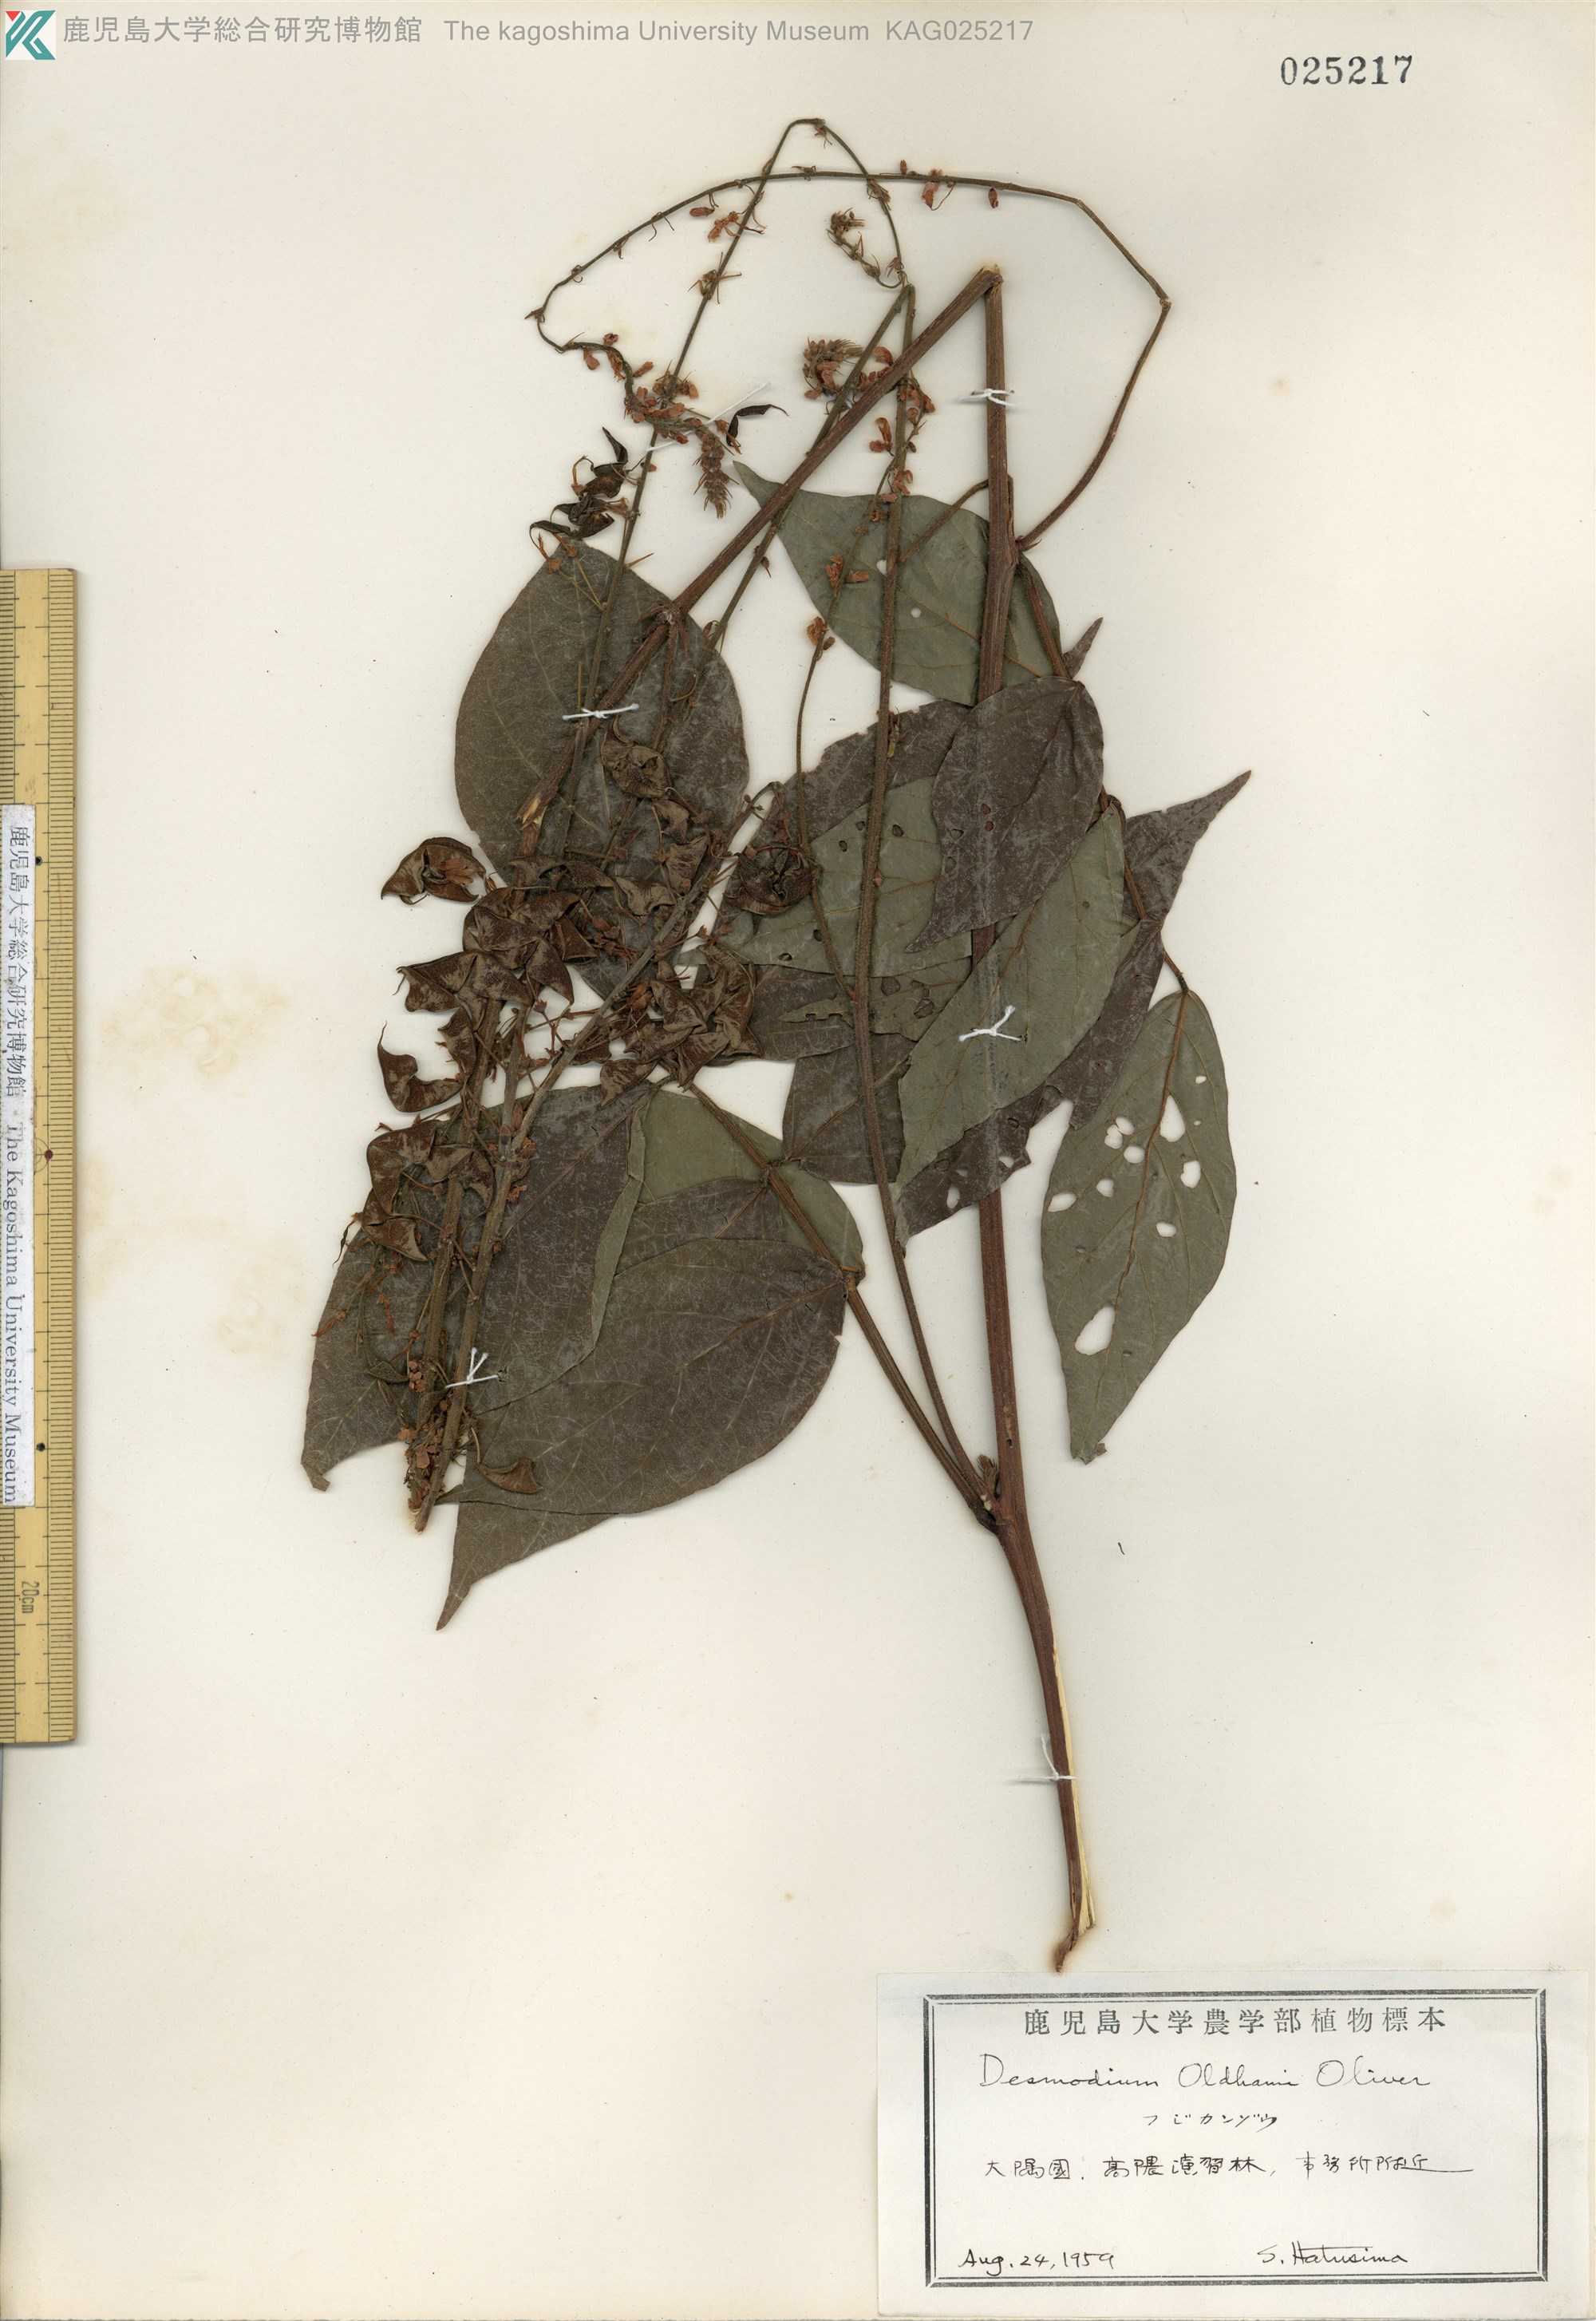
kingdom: Plantae
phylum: Tracheophyta
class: Magnoliopsida
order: Fabales
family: Fabaceae
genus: Hylodesmum
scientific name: Hylodesmum oldhamii
